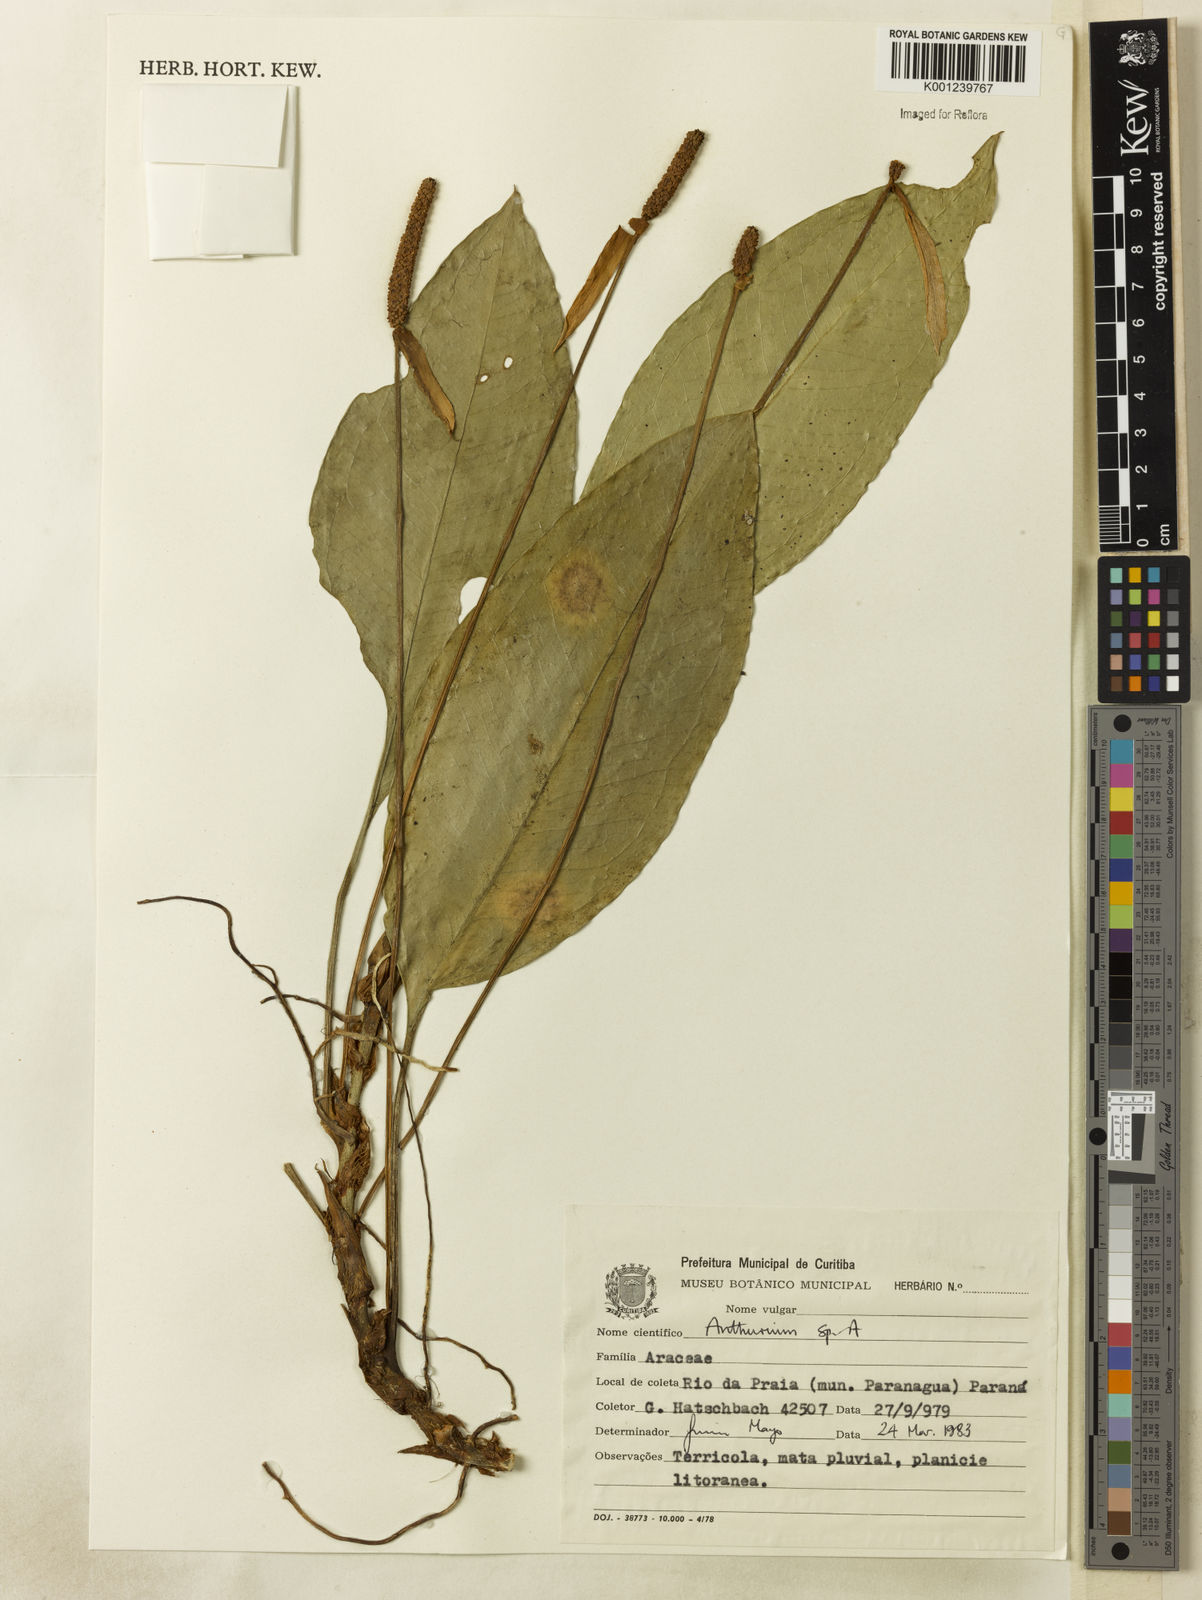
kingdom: Plantae
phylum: Tracheophyta
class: Liliopsida
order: Alismatales
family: Araceae
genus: Anthurium
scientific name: Anthurium
